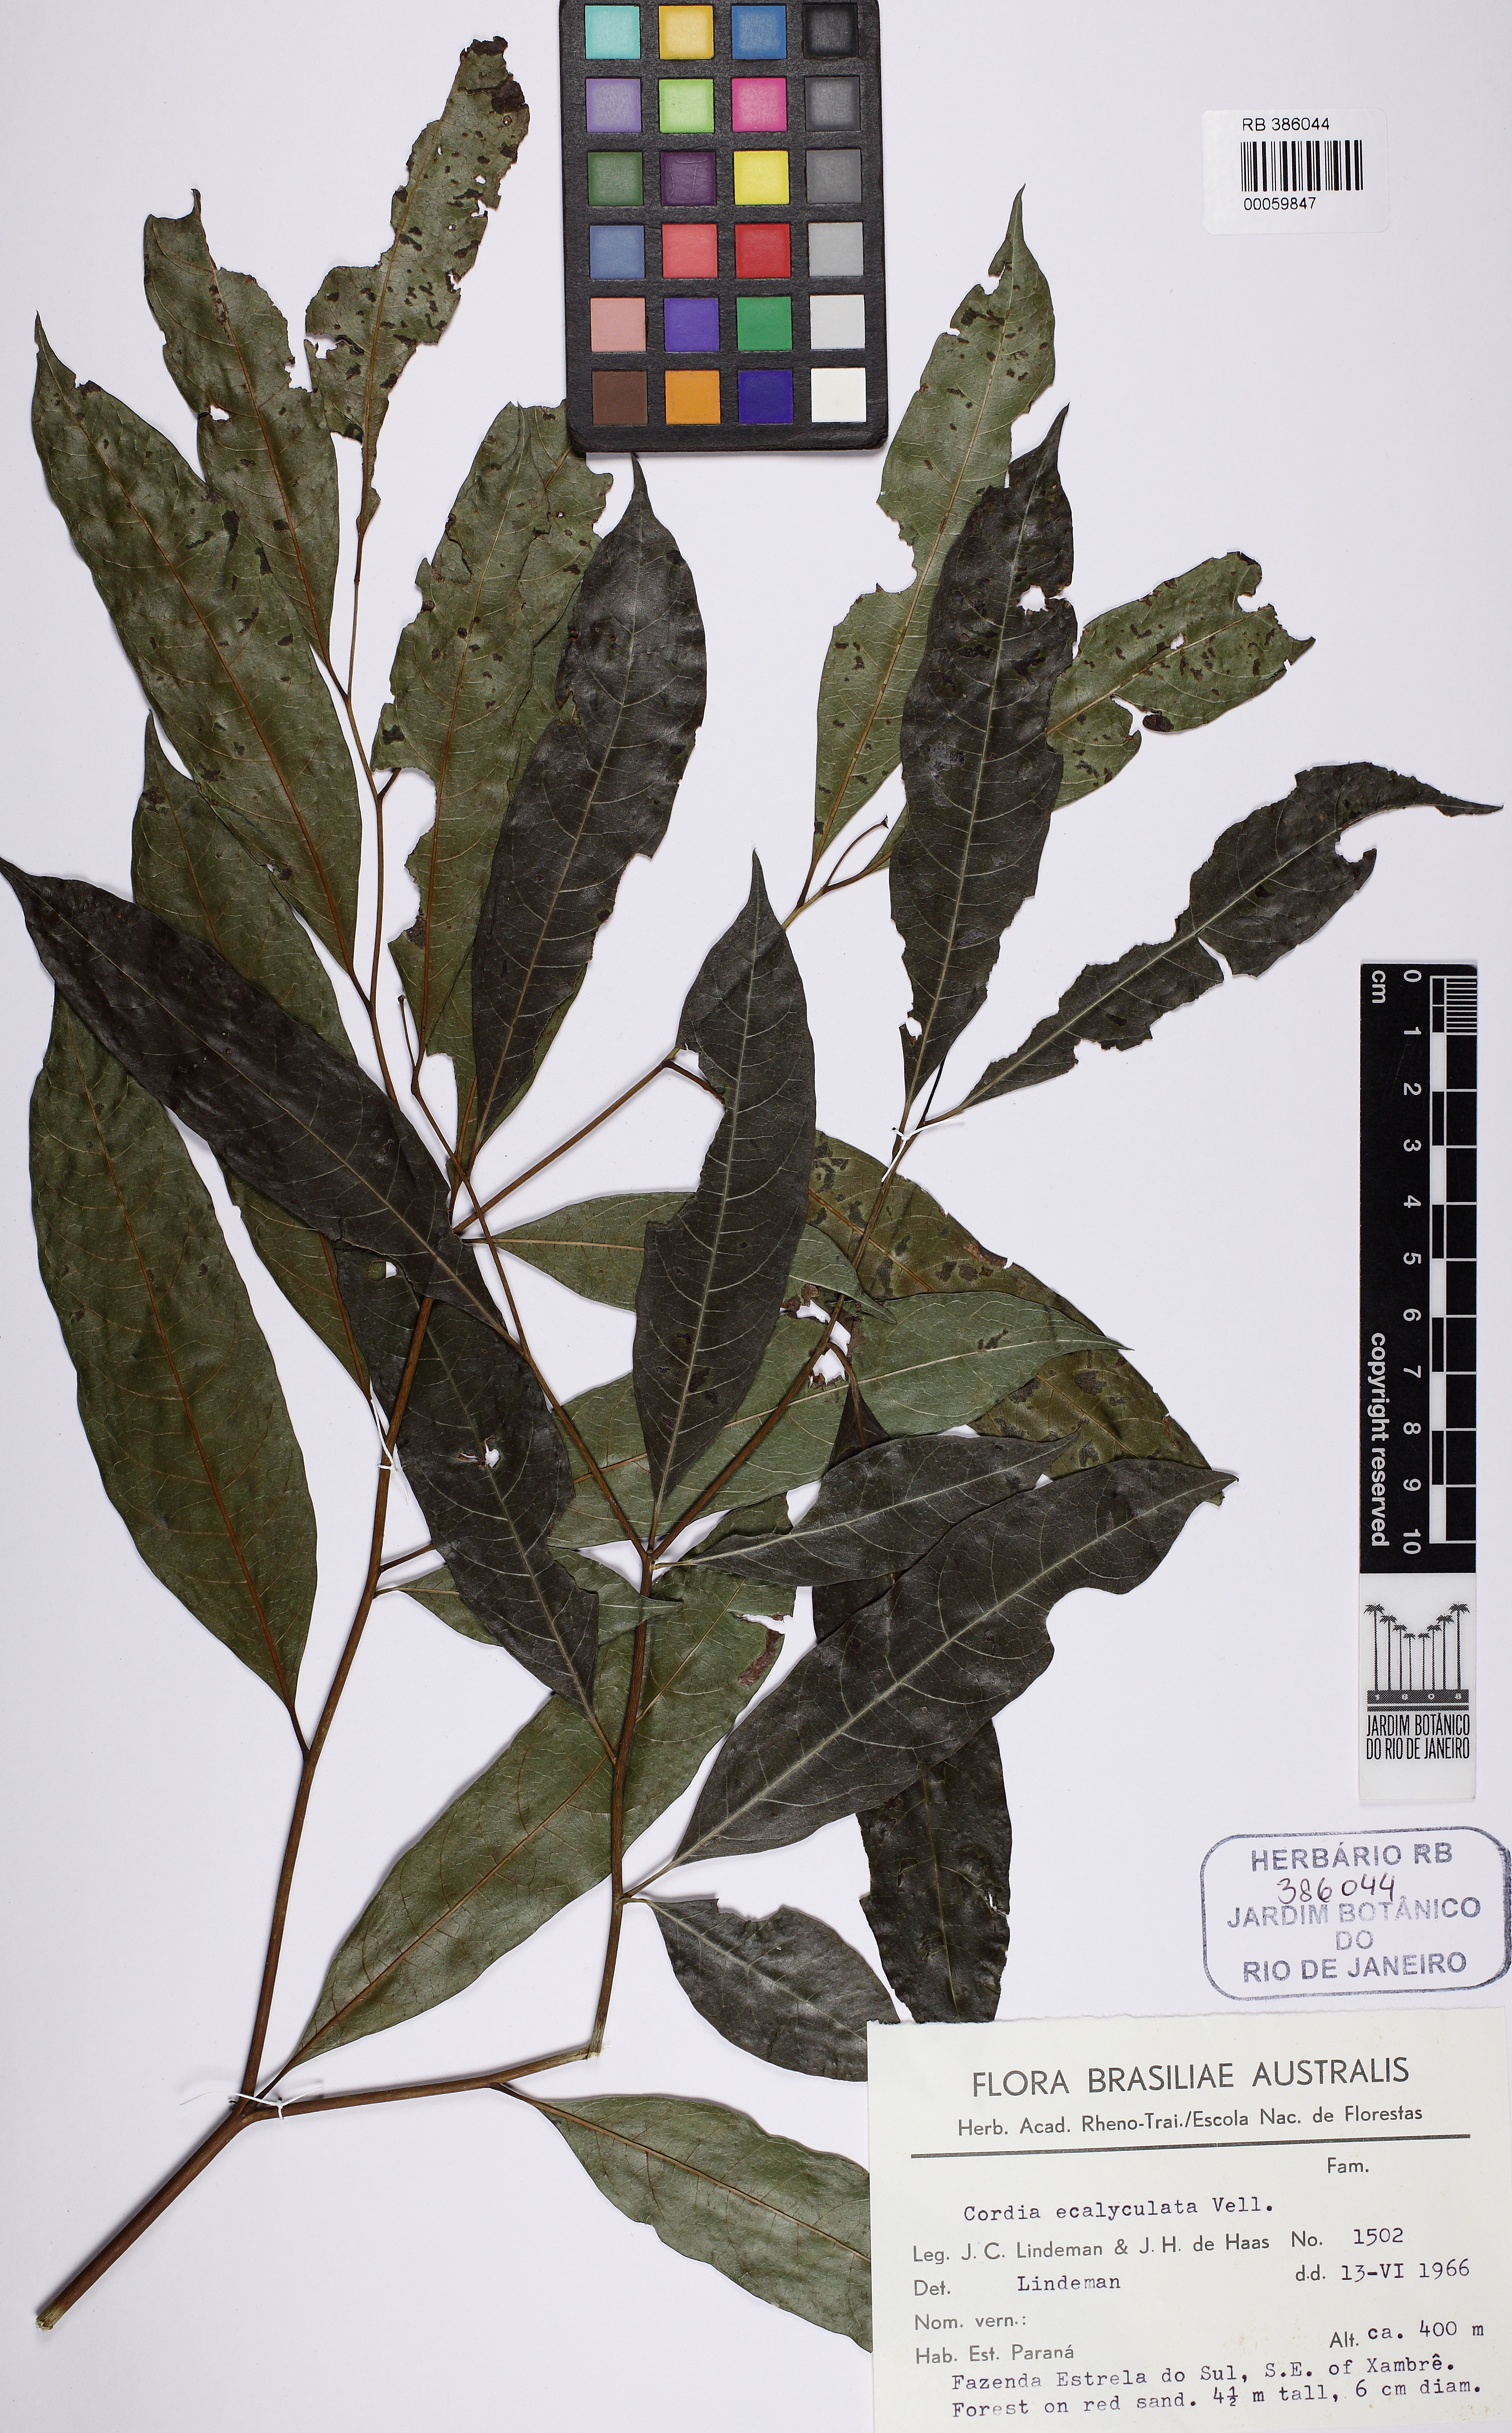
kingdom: Plantae
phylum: Tracheophyta
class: Magnoliopsida
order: Boraginales
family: Cordiaceae
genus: Cordia
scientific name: Cordia ecalyculata
